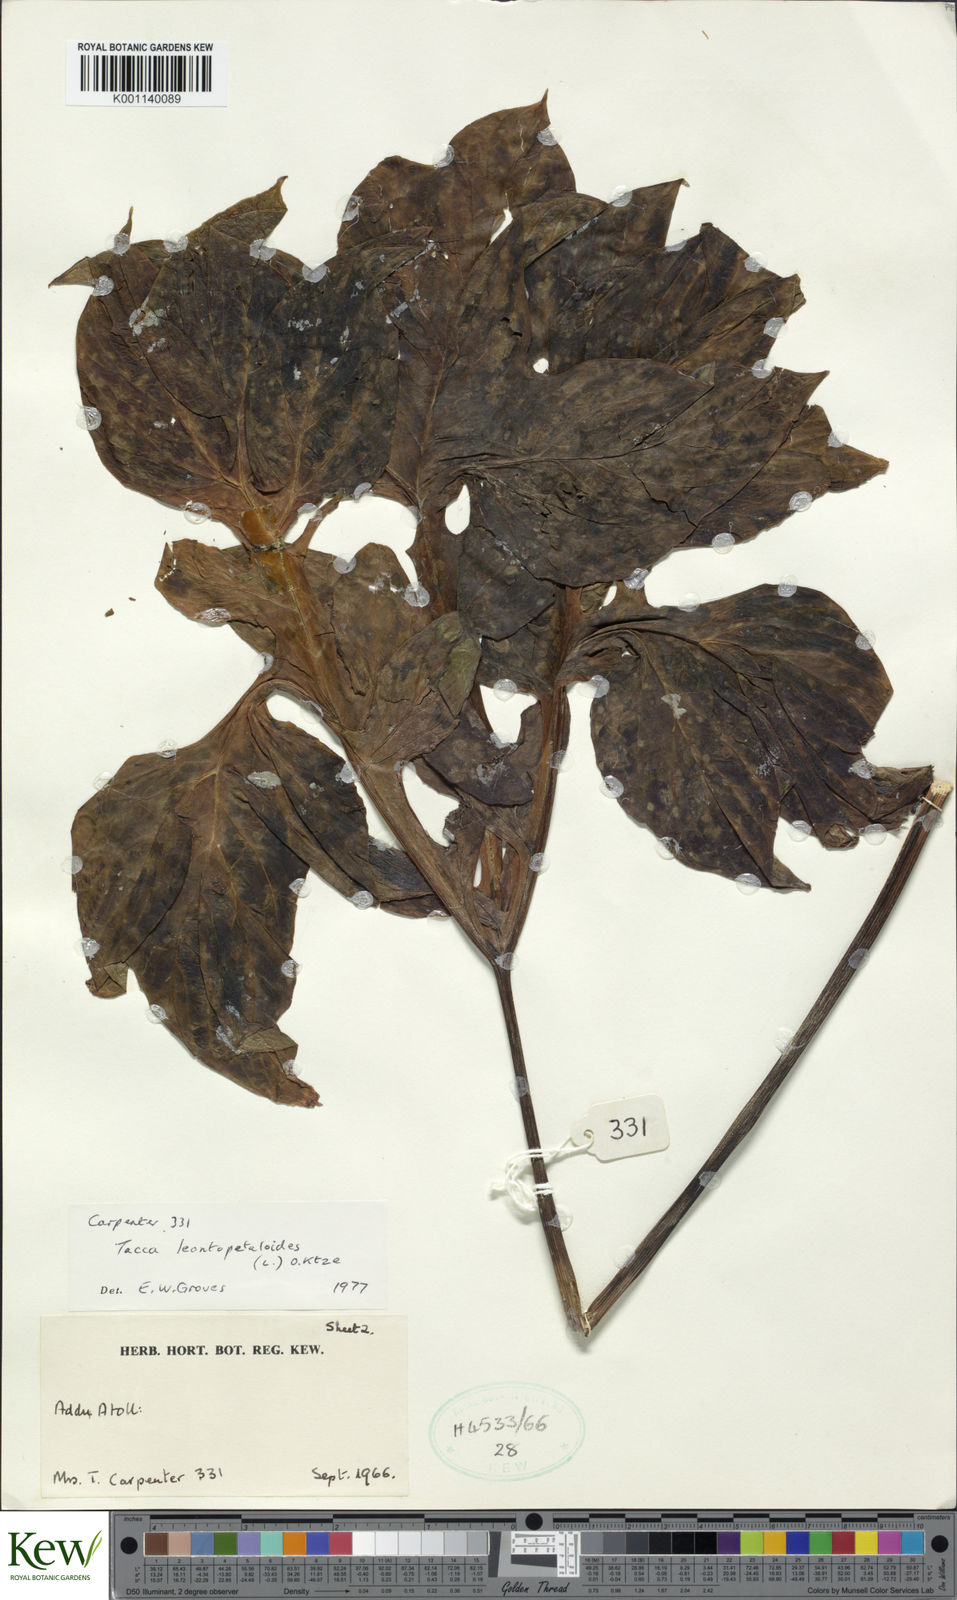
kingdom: Plantae
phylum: Tracheophyta
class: Liliopsida
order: Dioscoreales
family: Dioscoreaceae
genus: Tacca
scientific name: Tacca leontopetaloides
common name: Arrowroot
